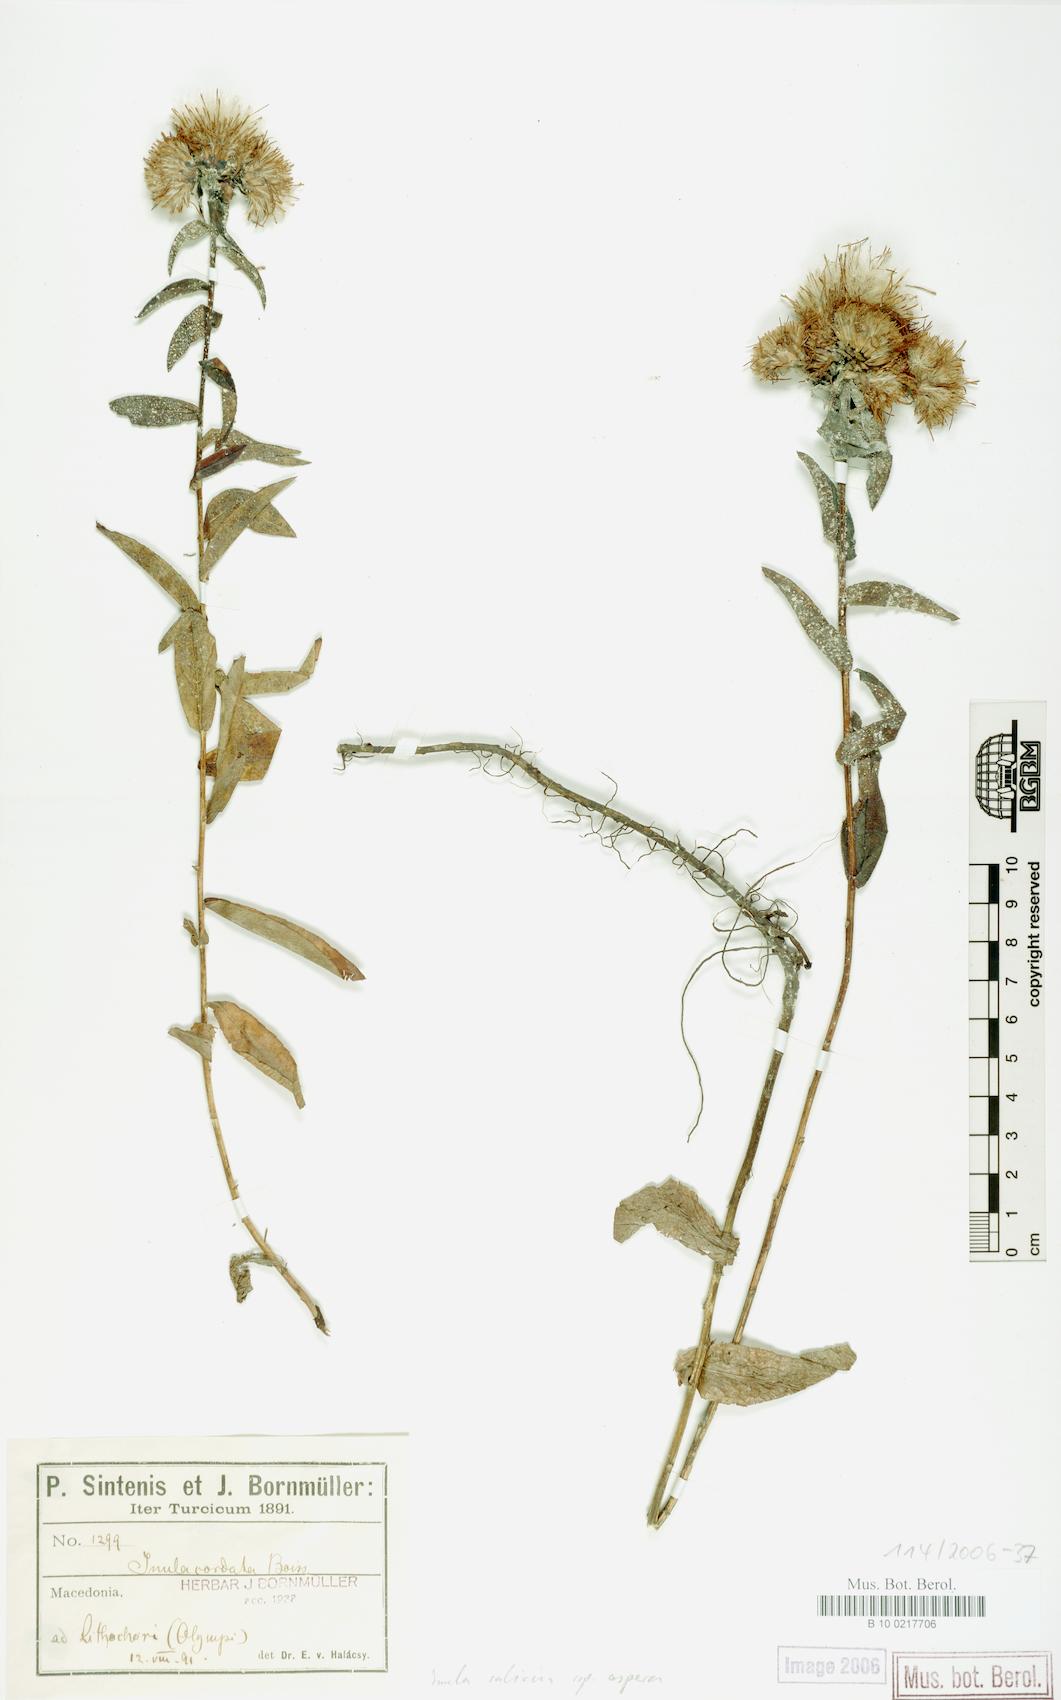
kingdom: Plantae
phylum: Tracheophyta
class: Magnoliopsida
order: Asterales
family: Asteraceae
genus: Pentanema
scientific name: Pentanema salicinum
